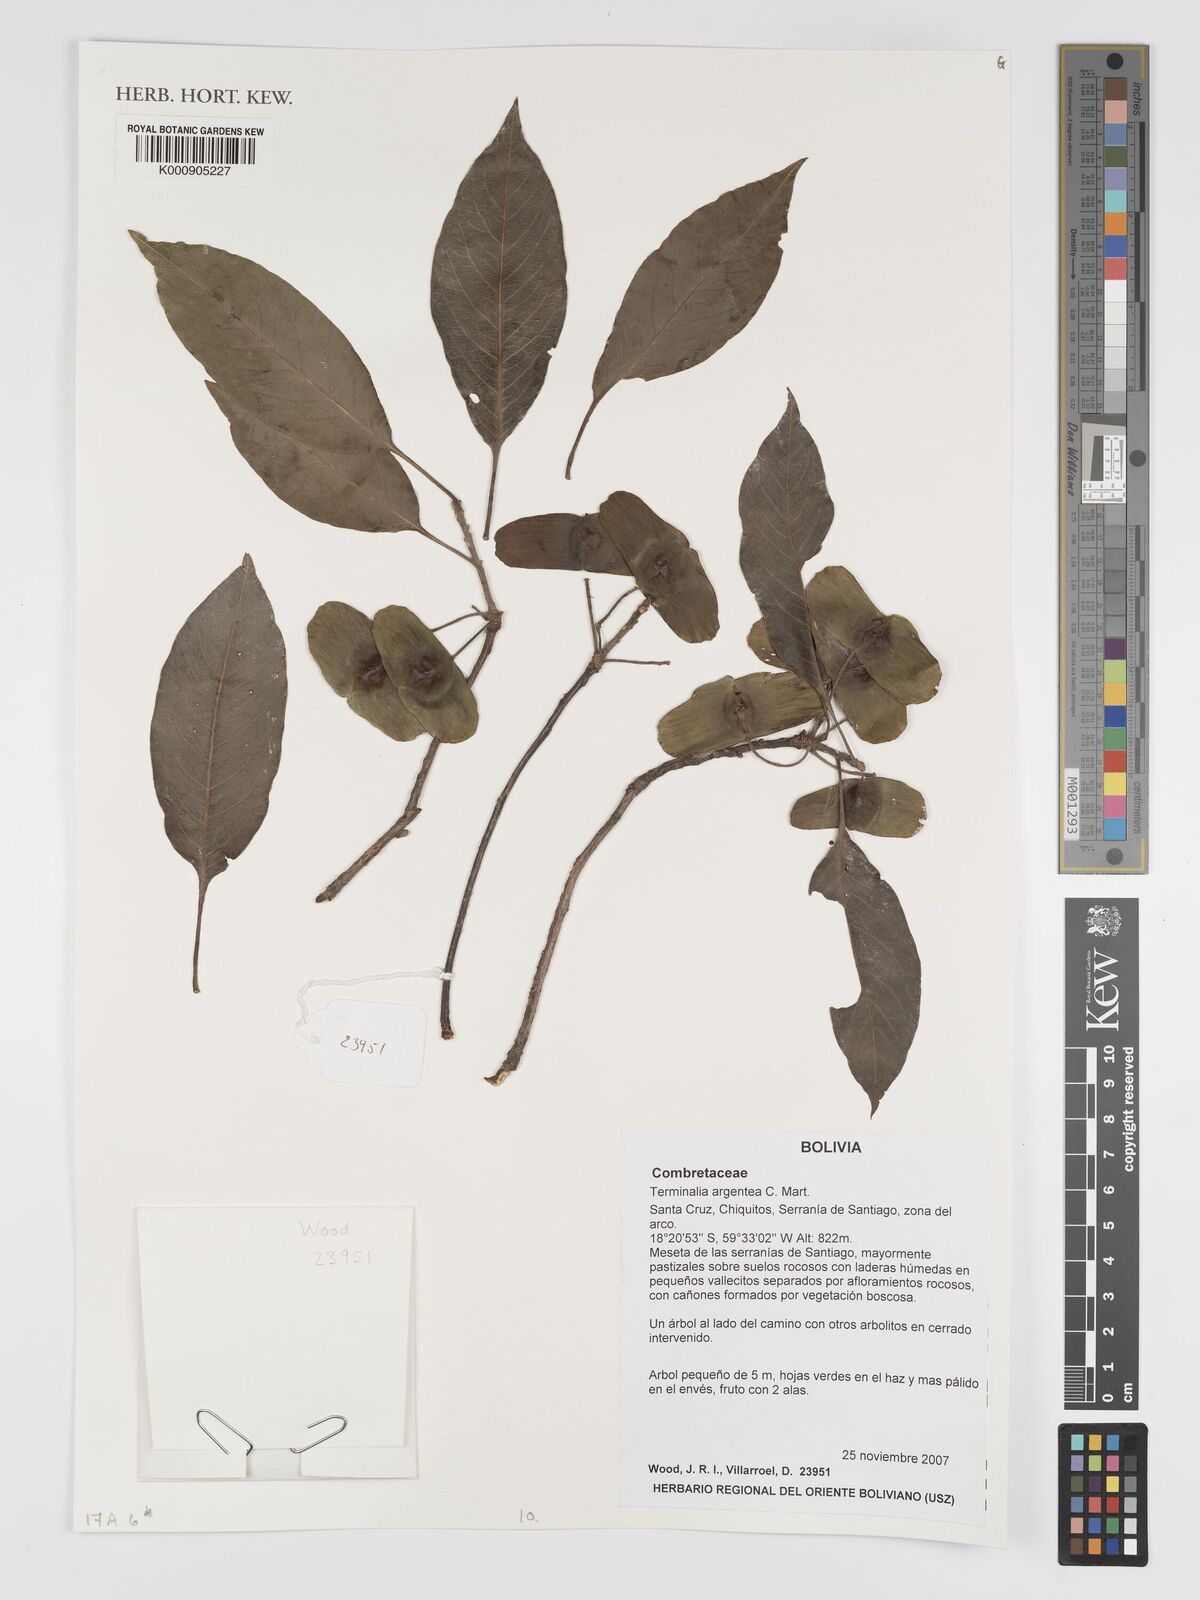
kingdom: Plantae
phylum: Tracheophyta
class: Magnoliopsida
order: Myrtales
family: Combretaceae
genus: Terminalia
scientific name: Terminalia argentea
